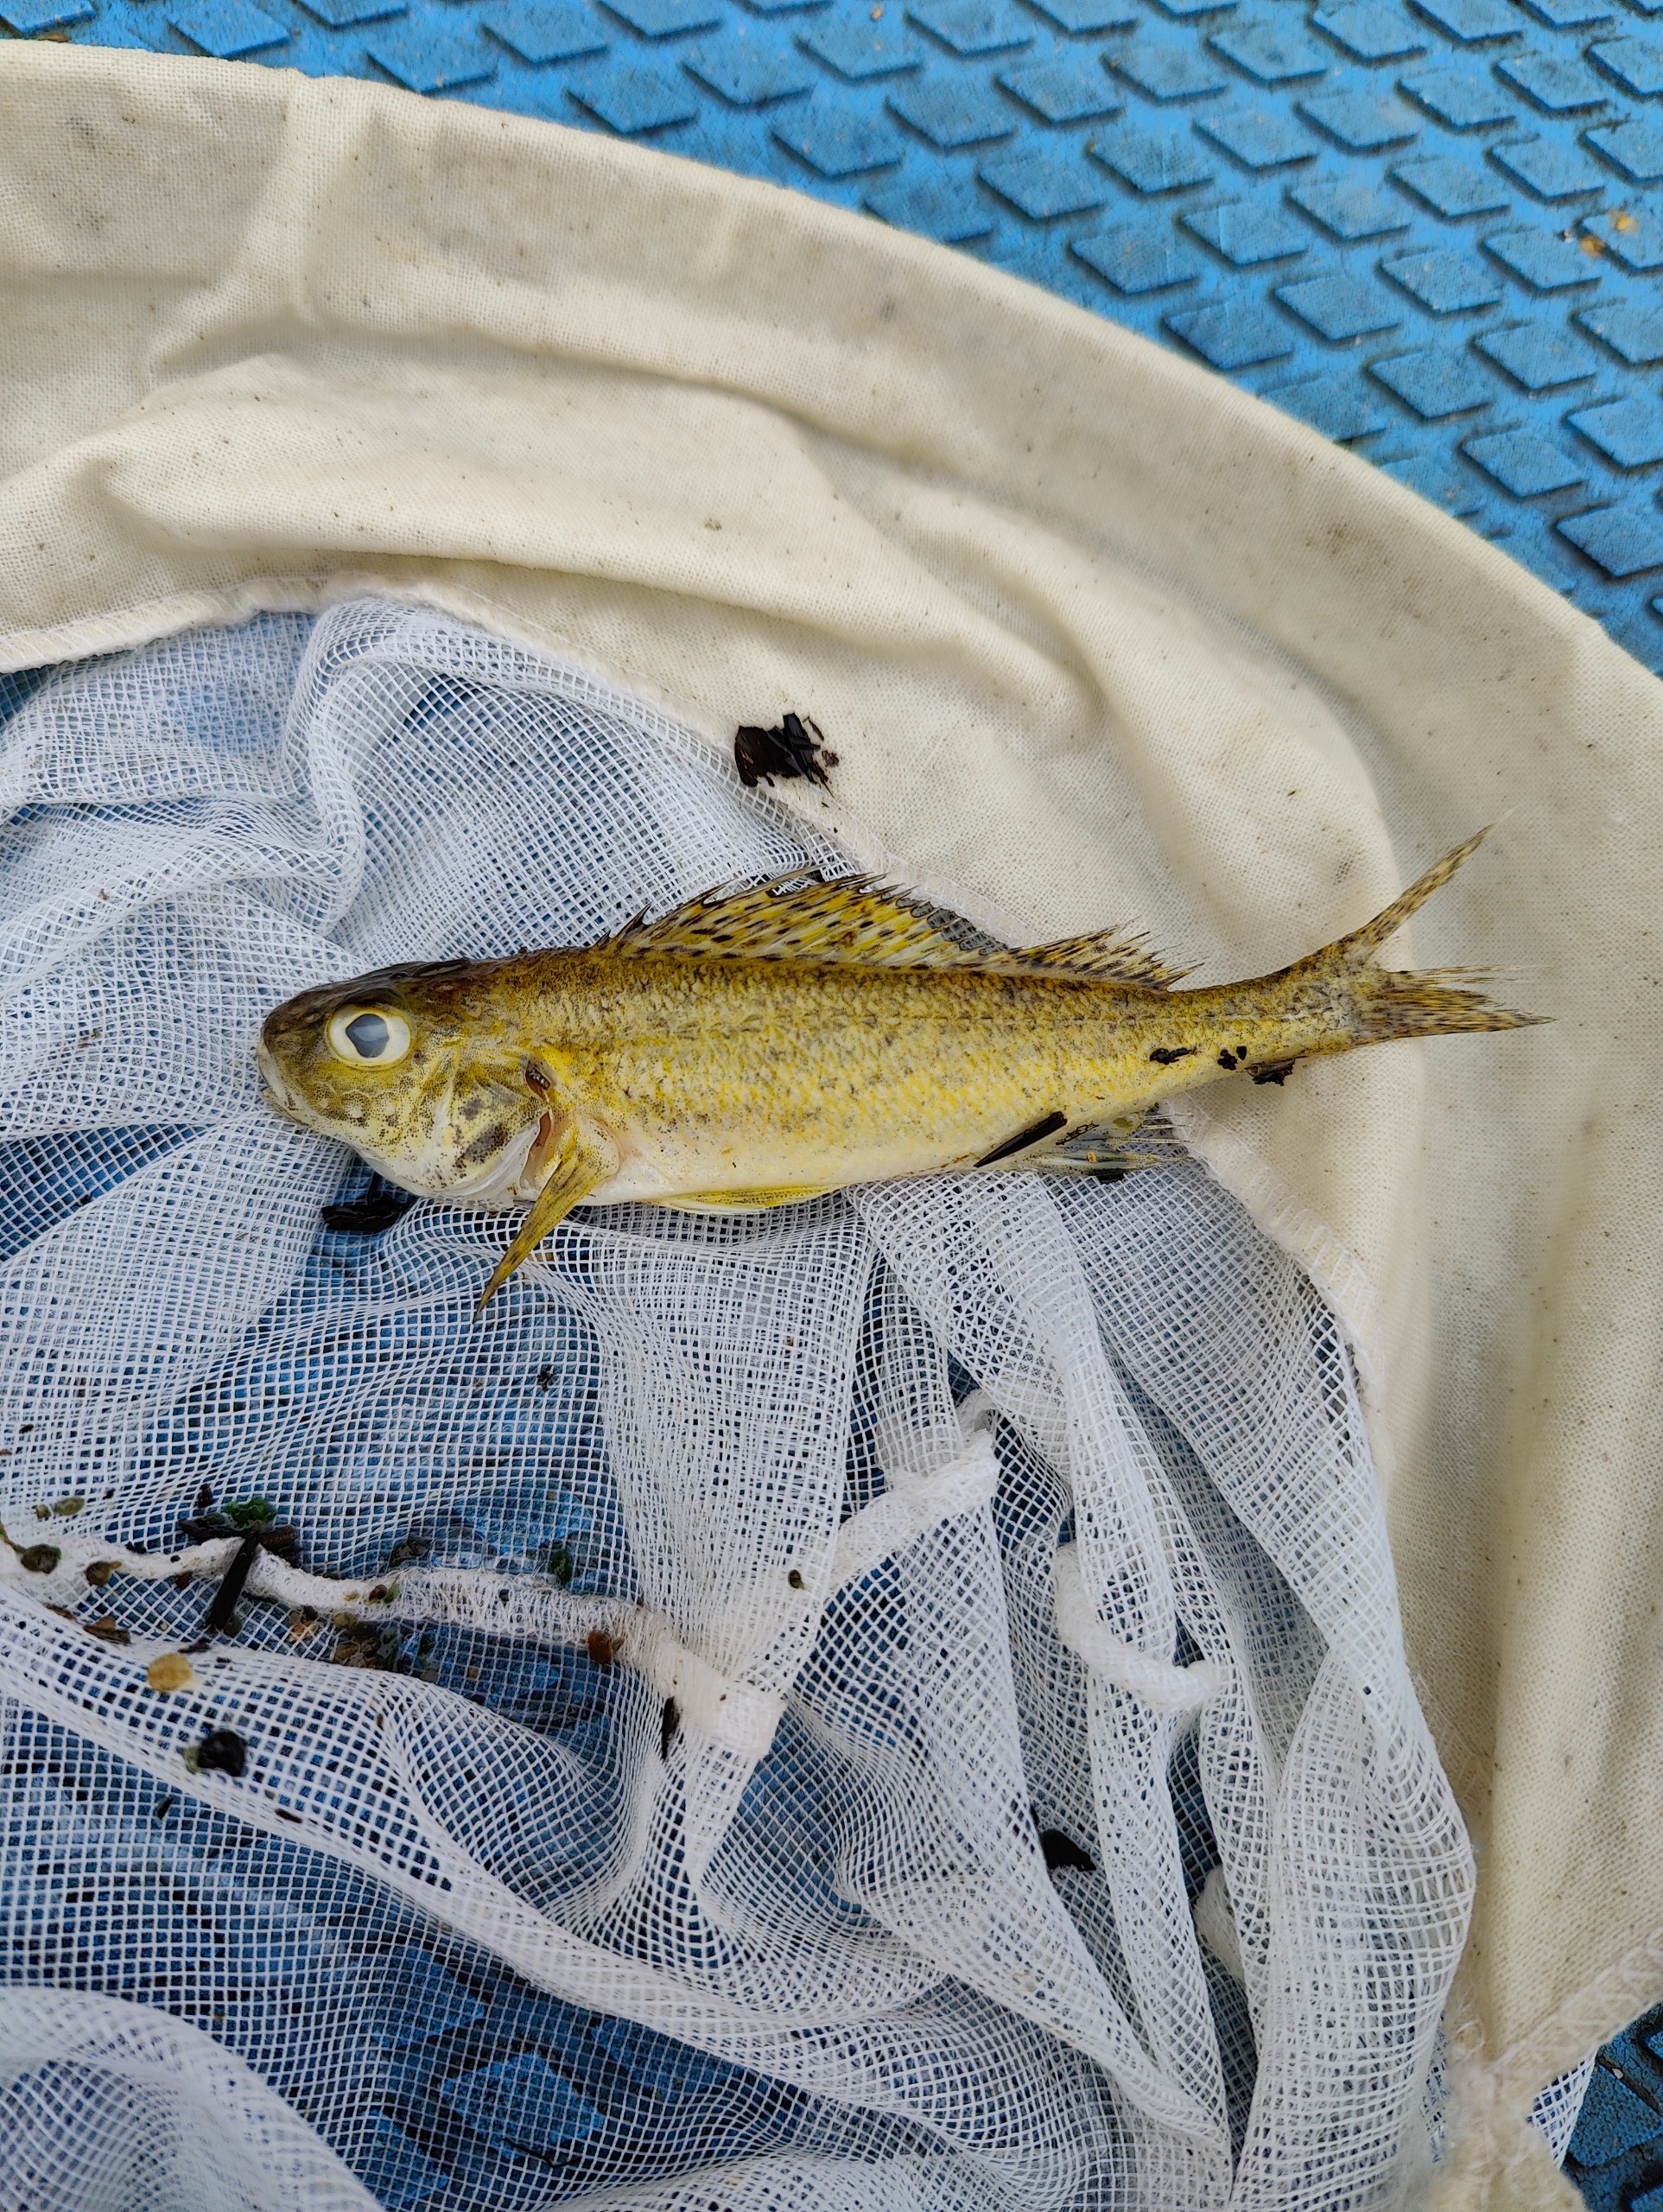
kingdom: Animalia
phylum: Chordata
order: Perciformes
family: Percidae
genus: Gymnocephalus
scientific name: Gymnocephalus cernua
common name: Hork
